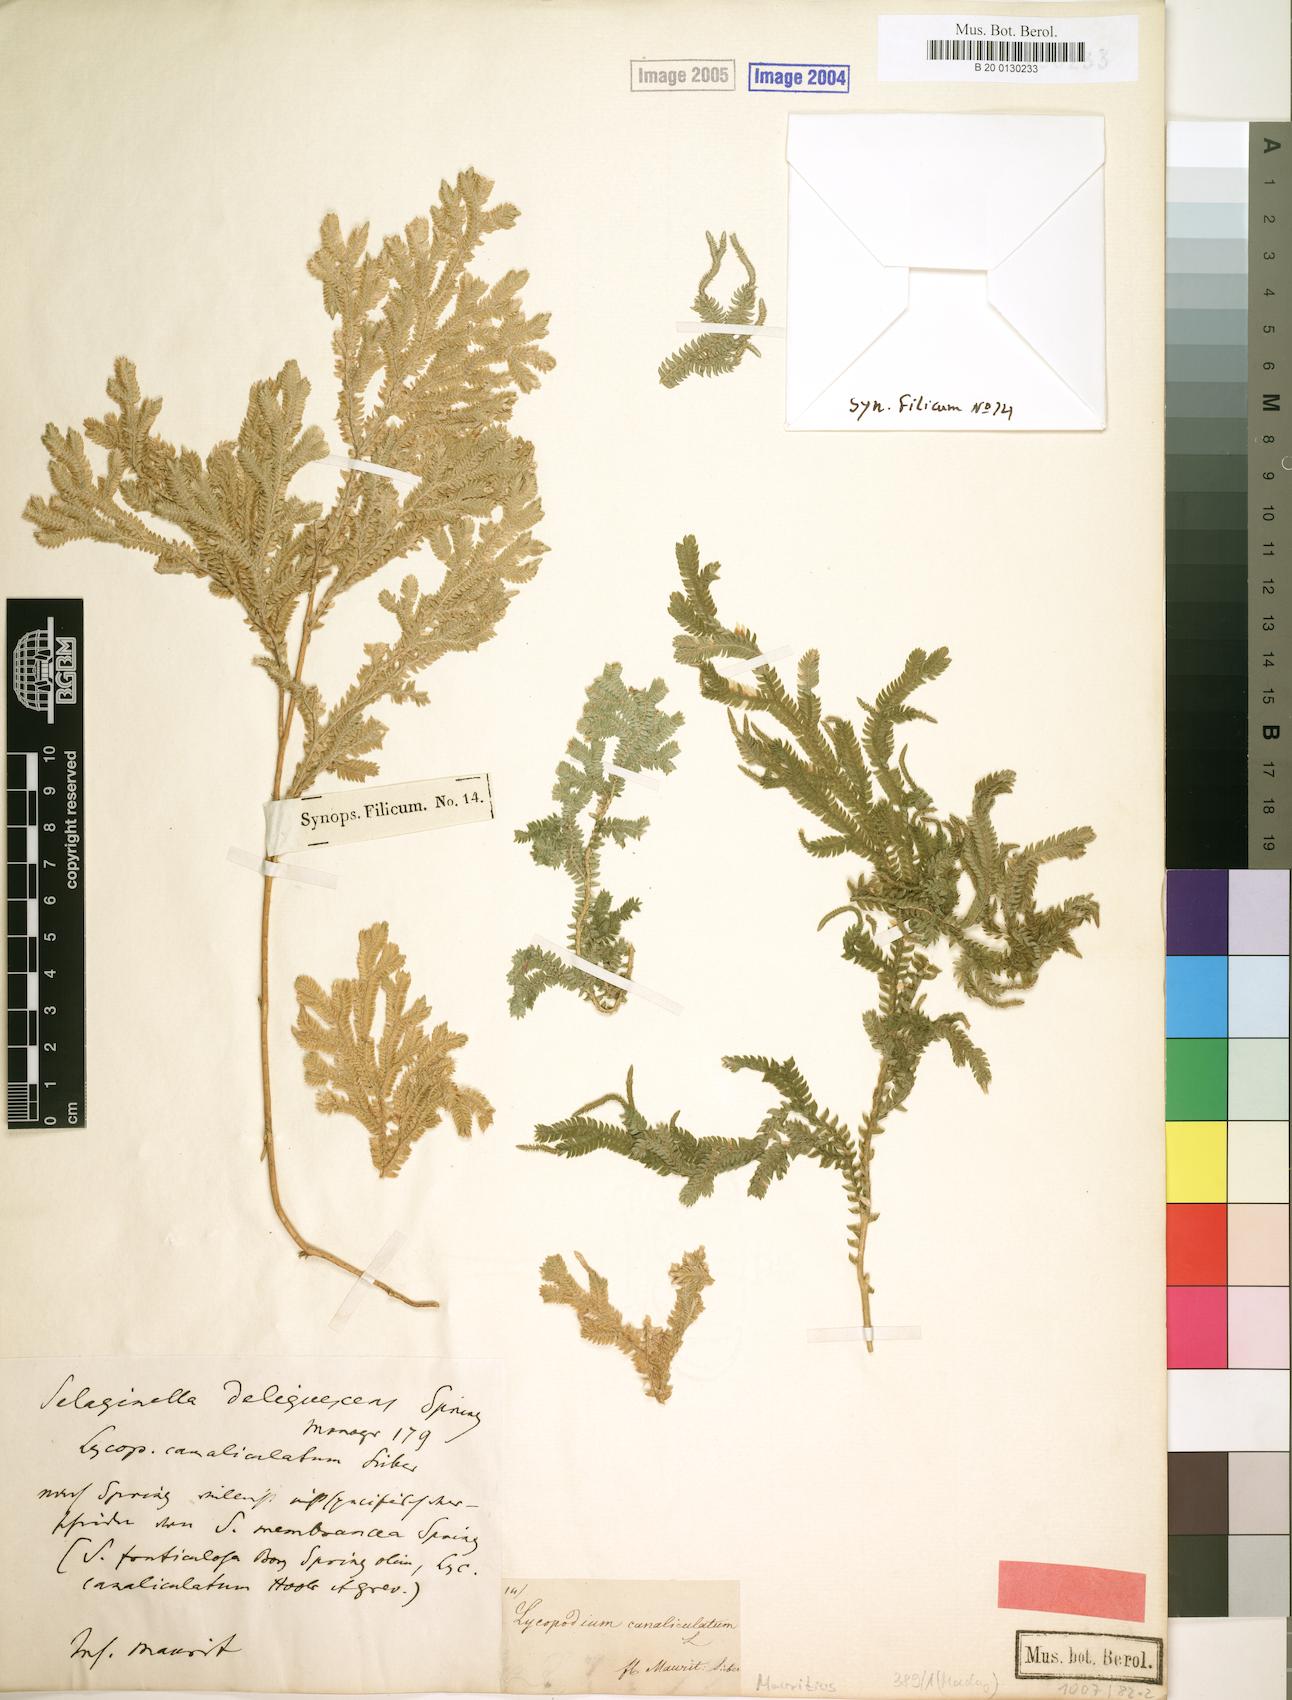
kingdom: Plantae
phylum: Tracheophyta
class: Lycopodiopsida
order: Selaginellales
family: Selaginellaceae
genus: Selaginella
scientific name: Selaginella fruticulosa
